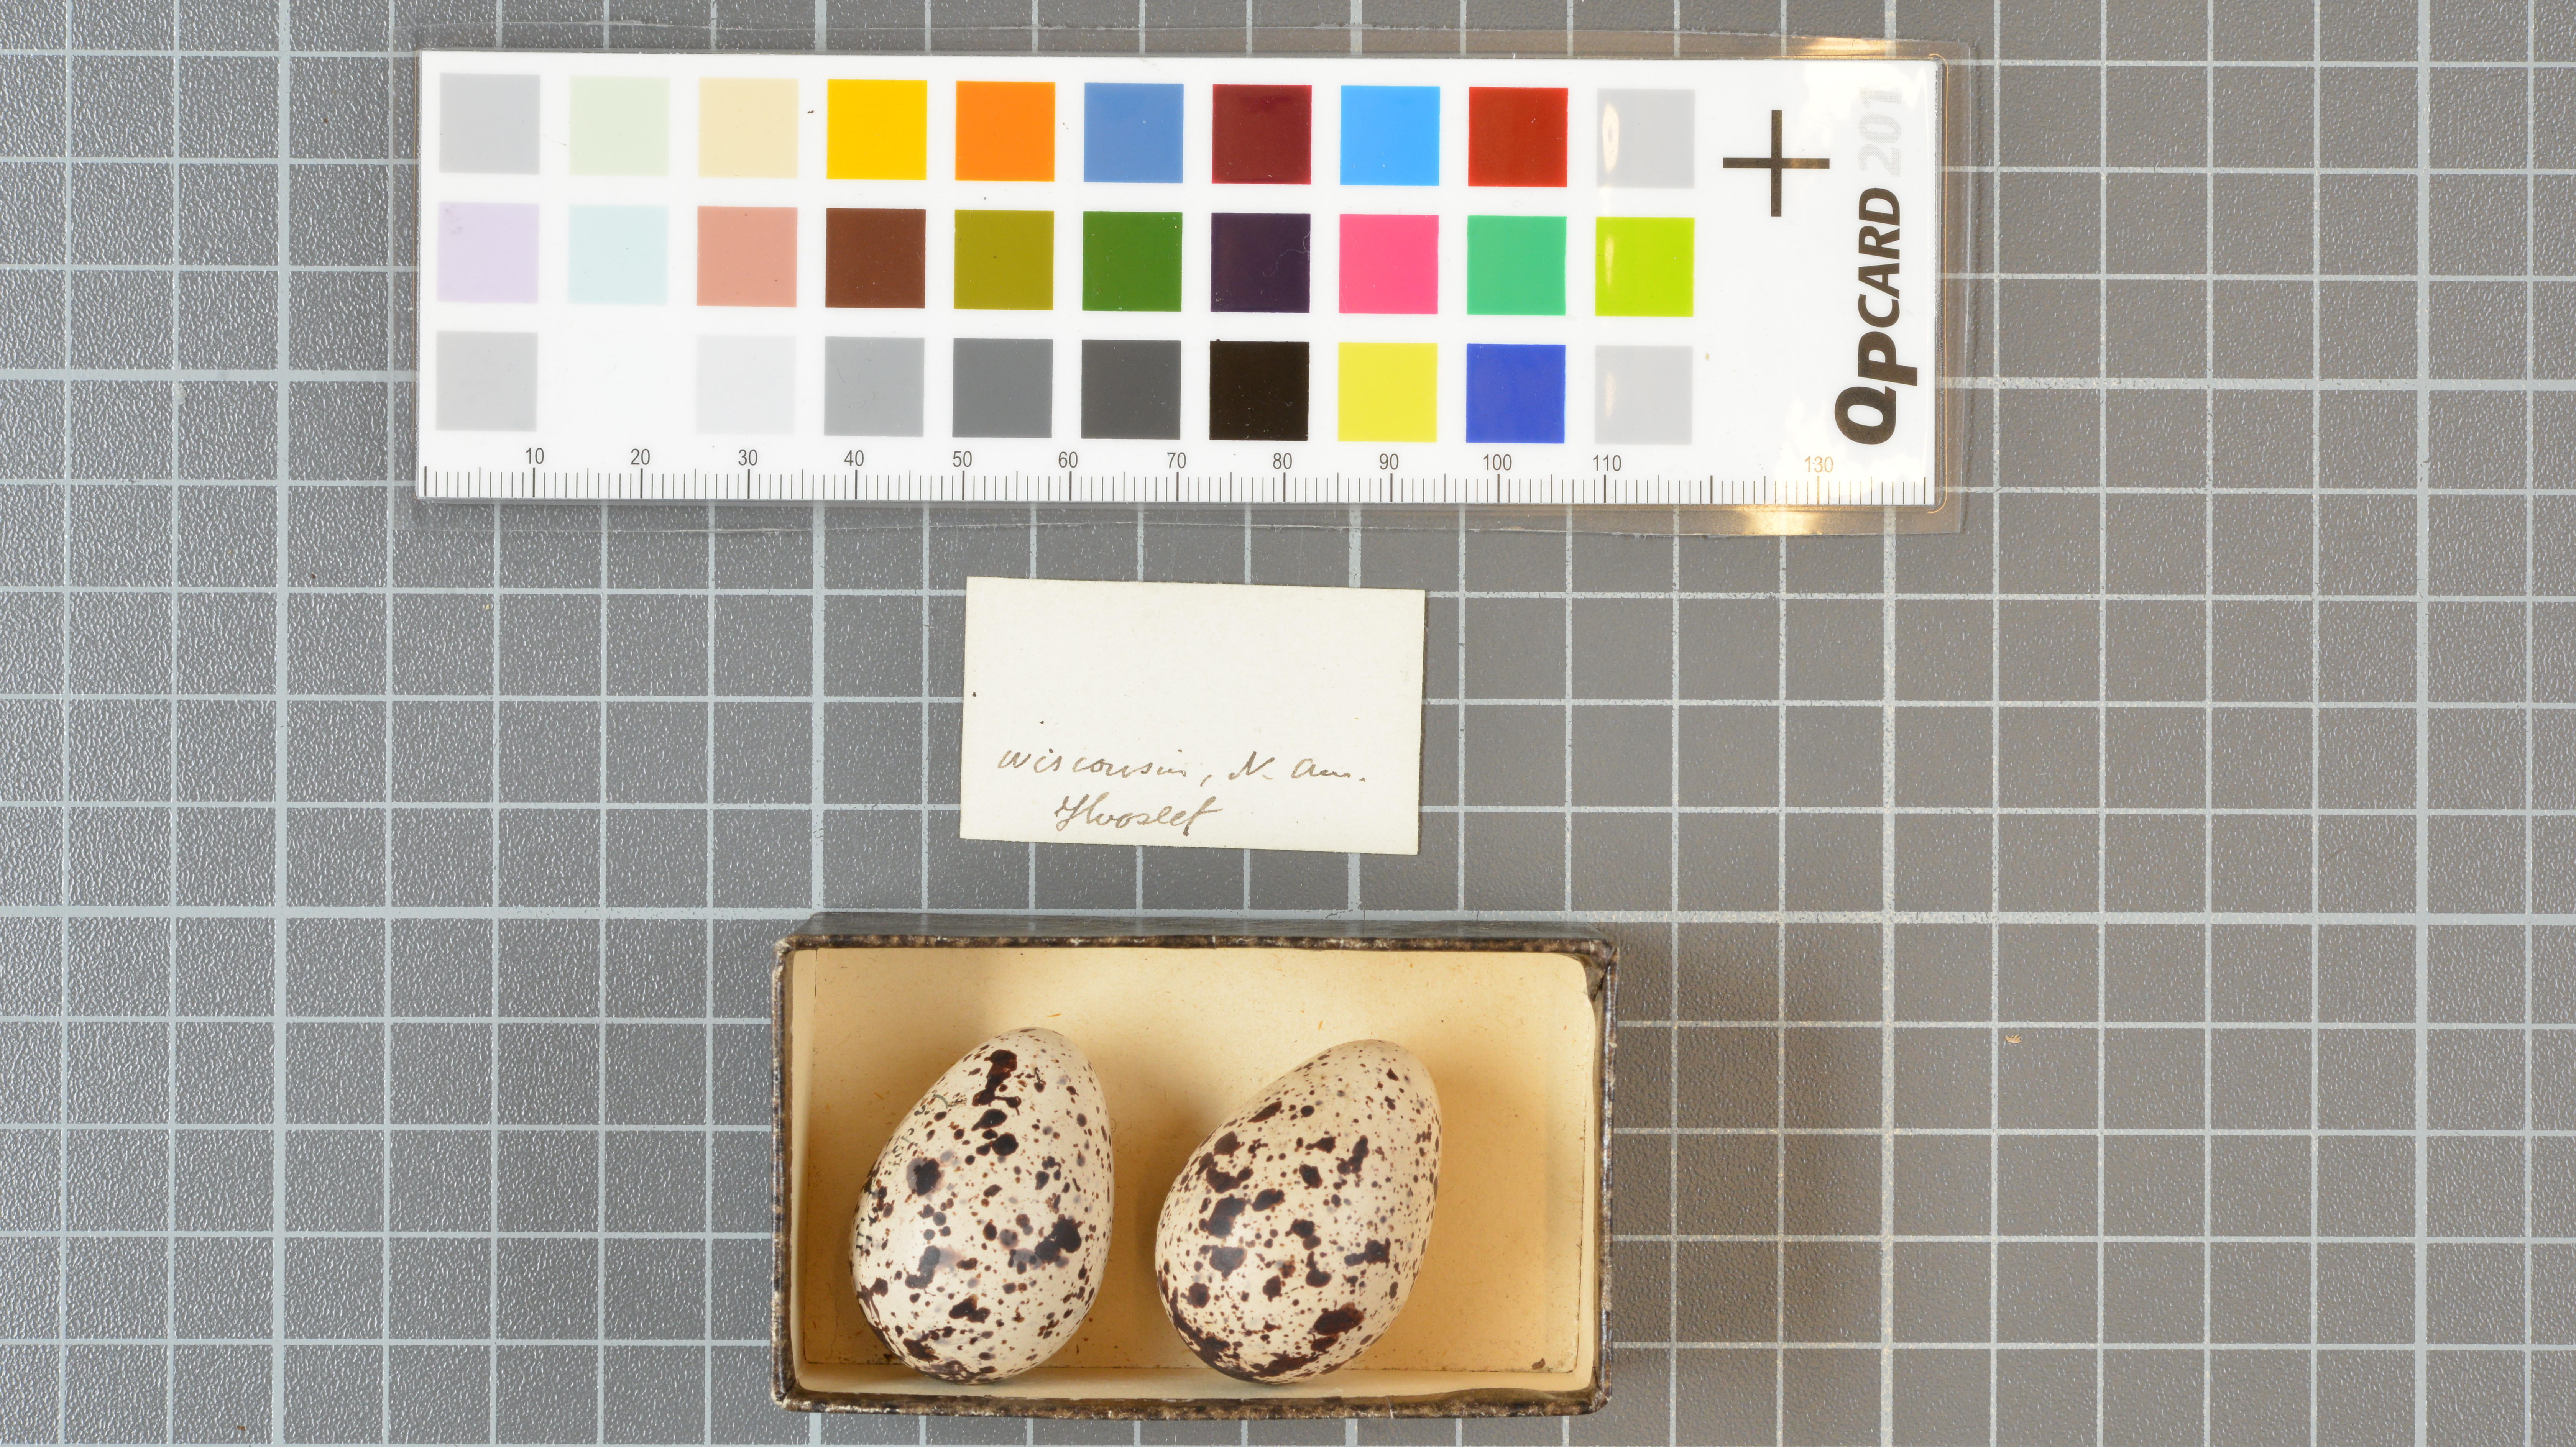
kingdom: Animalia
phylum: Chordata
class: Aves
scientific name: Aves
